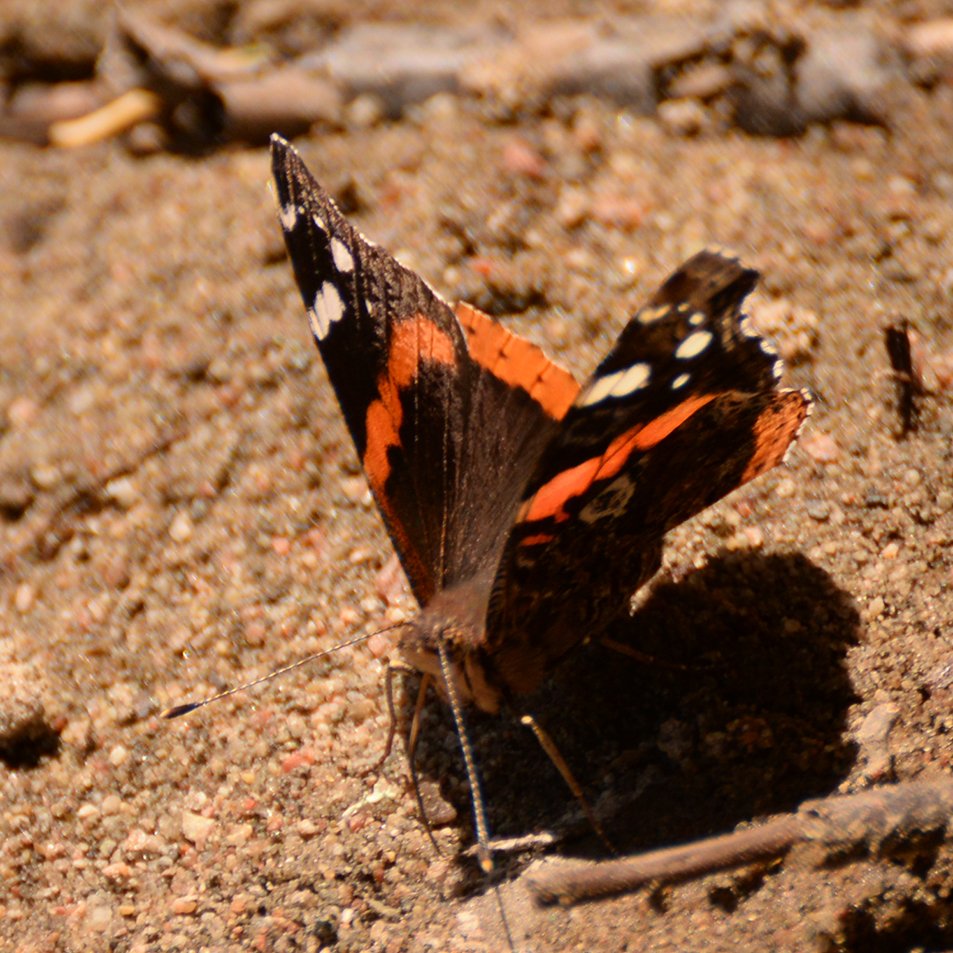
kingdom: Animalia
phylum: Arthropoda
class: Insecta
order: Lepidoptera
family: Nymphalidae
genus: Vanessa
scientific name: Vanessa atalanta
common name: Red Admiral
